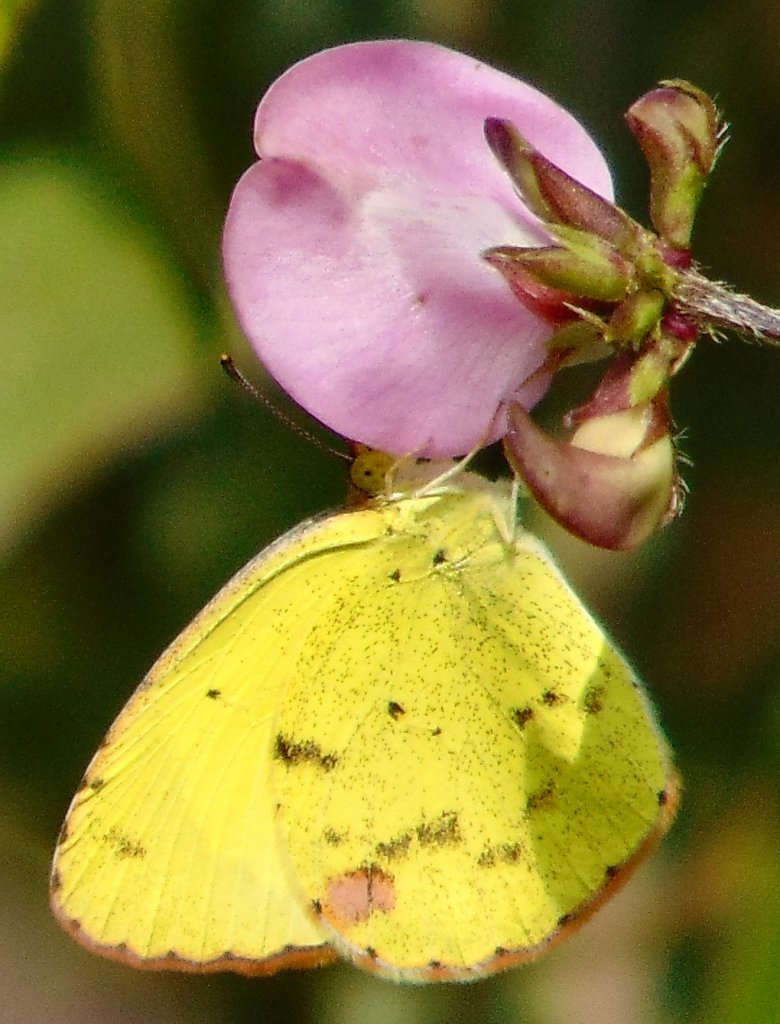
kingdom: Animalia
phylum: Arthropoda
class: Insecta
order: Lepidoptera
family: Pieridae
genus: Pyrisitia
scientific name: Pyrisitia lisa
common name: Little Yellow
